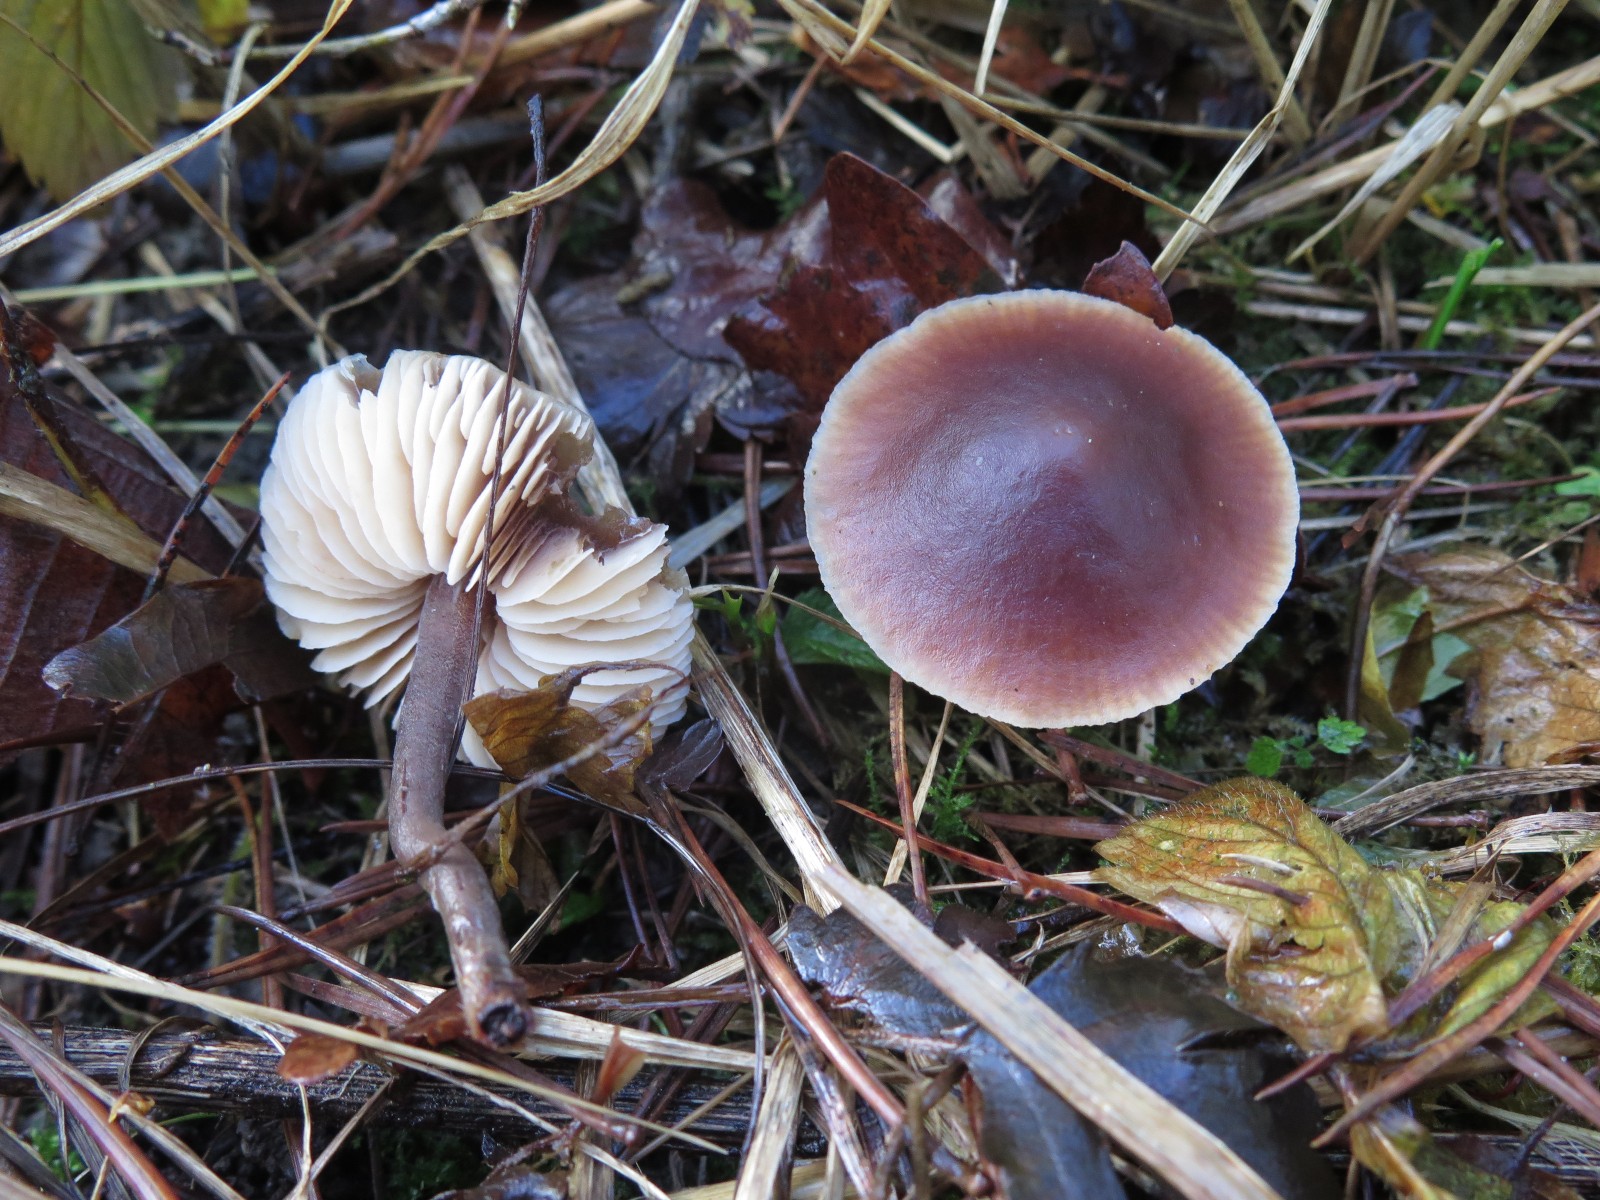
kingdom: Fungi
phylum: Basidiomycota
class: Agaricomycetes
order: Agaricales
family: Macrocystidiaceae
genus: Macrocystidia
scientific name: Macrocystidia cucumis
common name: agurkehat
